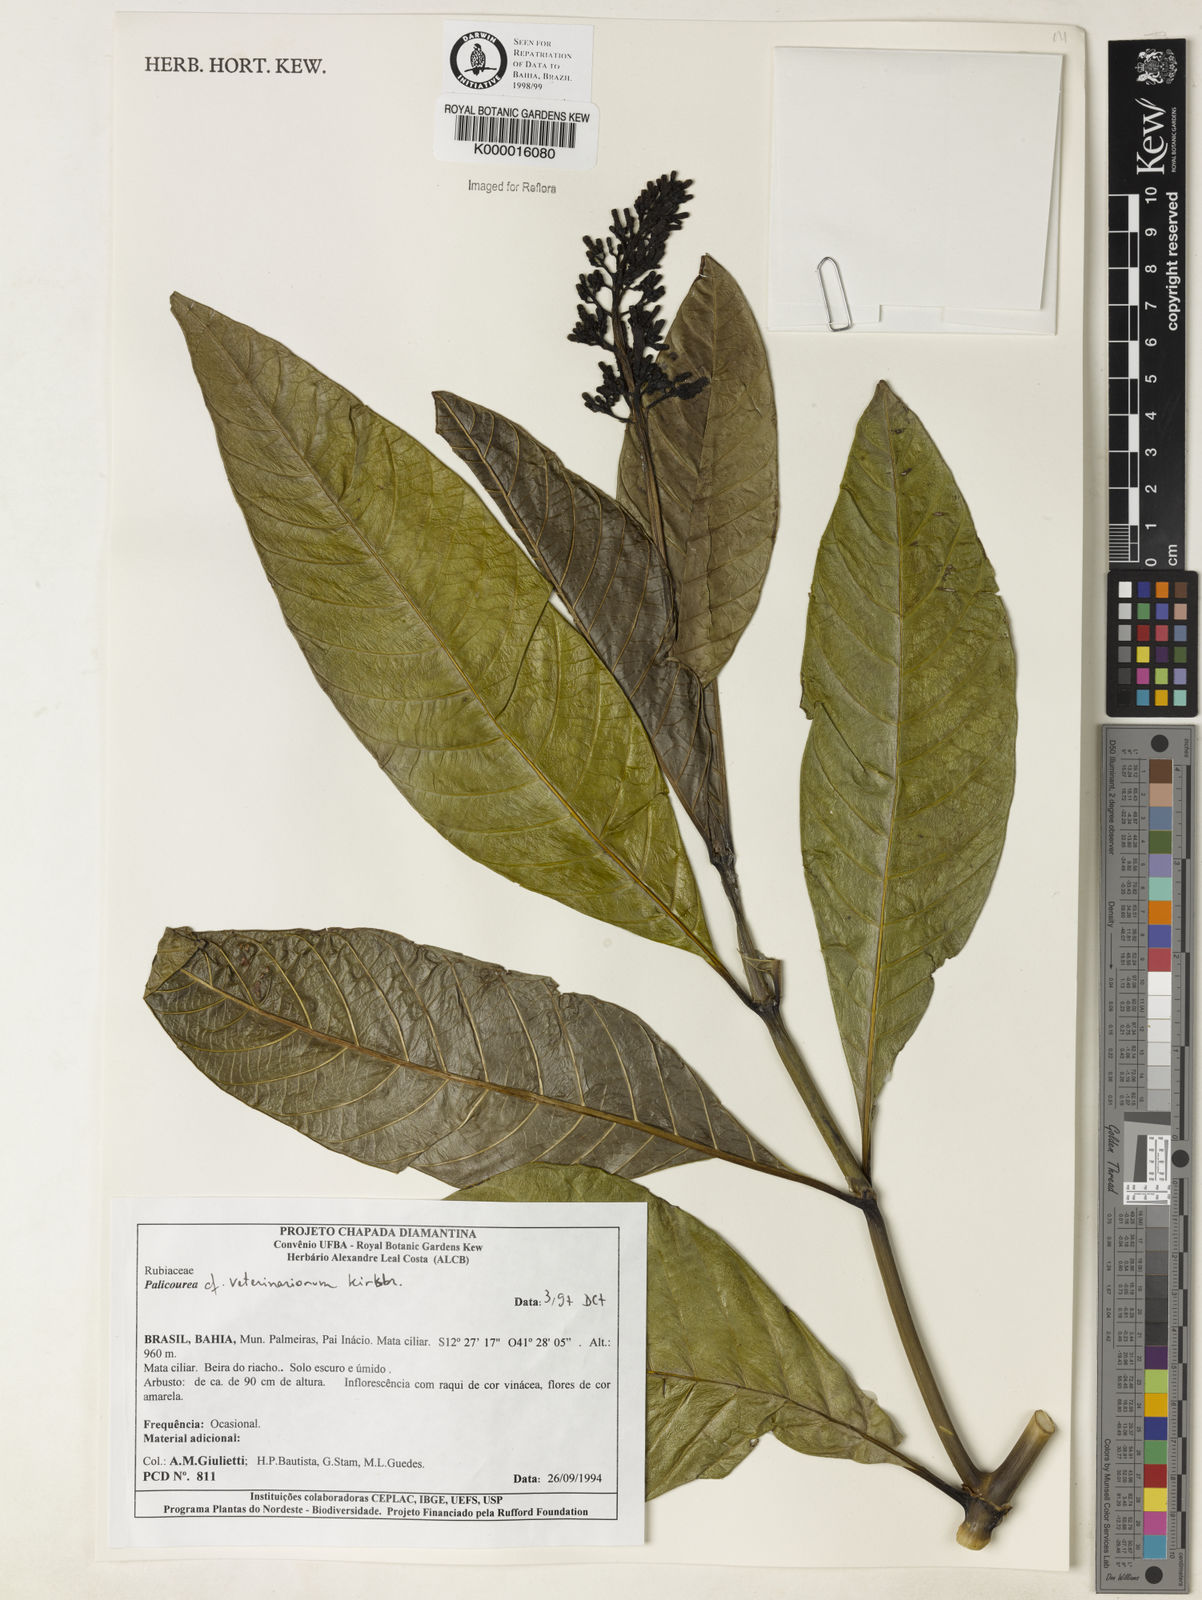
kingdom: Plantae
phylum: Tracheophyta
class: Magnoliopsida
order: Gentianales
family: Rubiaceae
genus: Palicourea
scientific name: Palicourea veterinariorum
